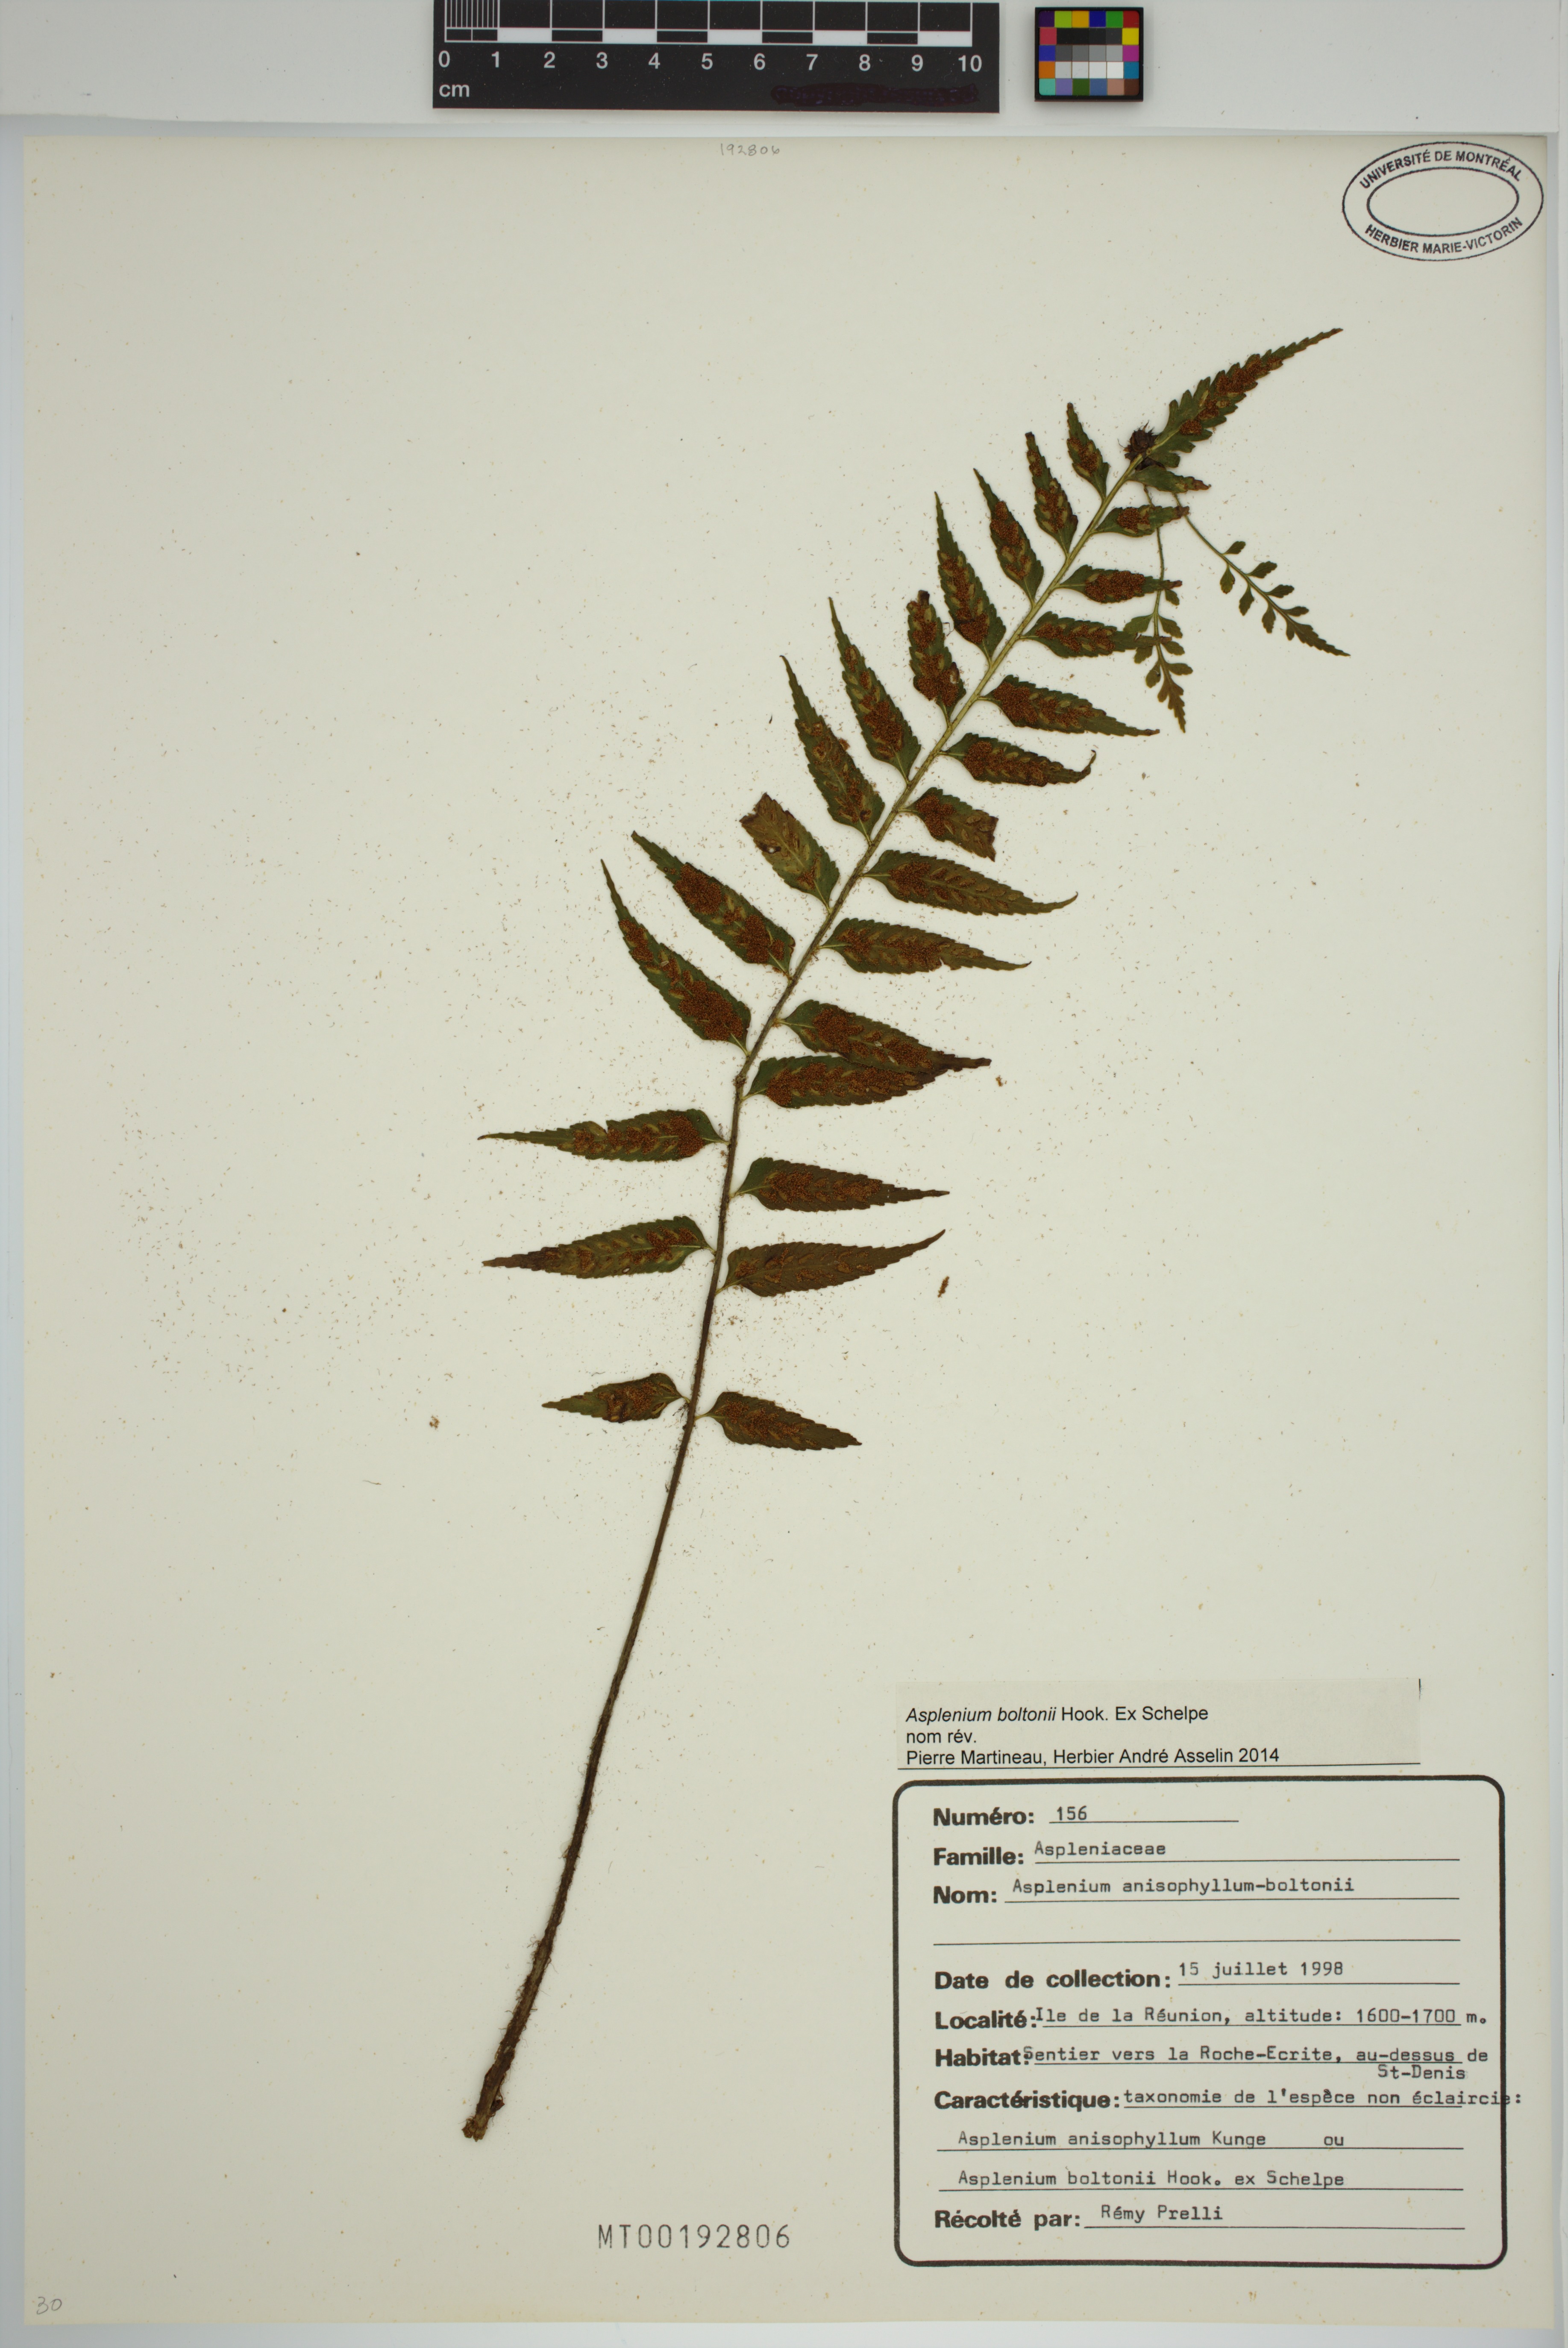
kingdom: Plantae
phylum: Tracheophyta
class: Polypodiopsida
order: Polypodiales
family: Aspleniaceae
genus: Asplenium
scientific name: Asplenium boltonii
